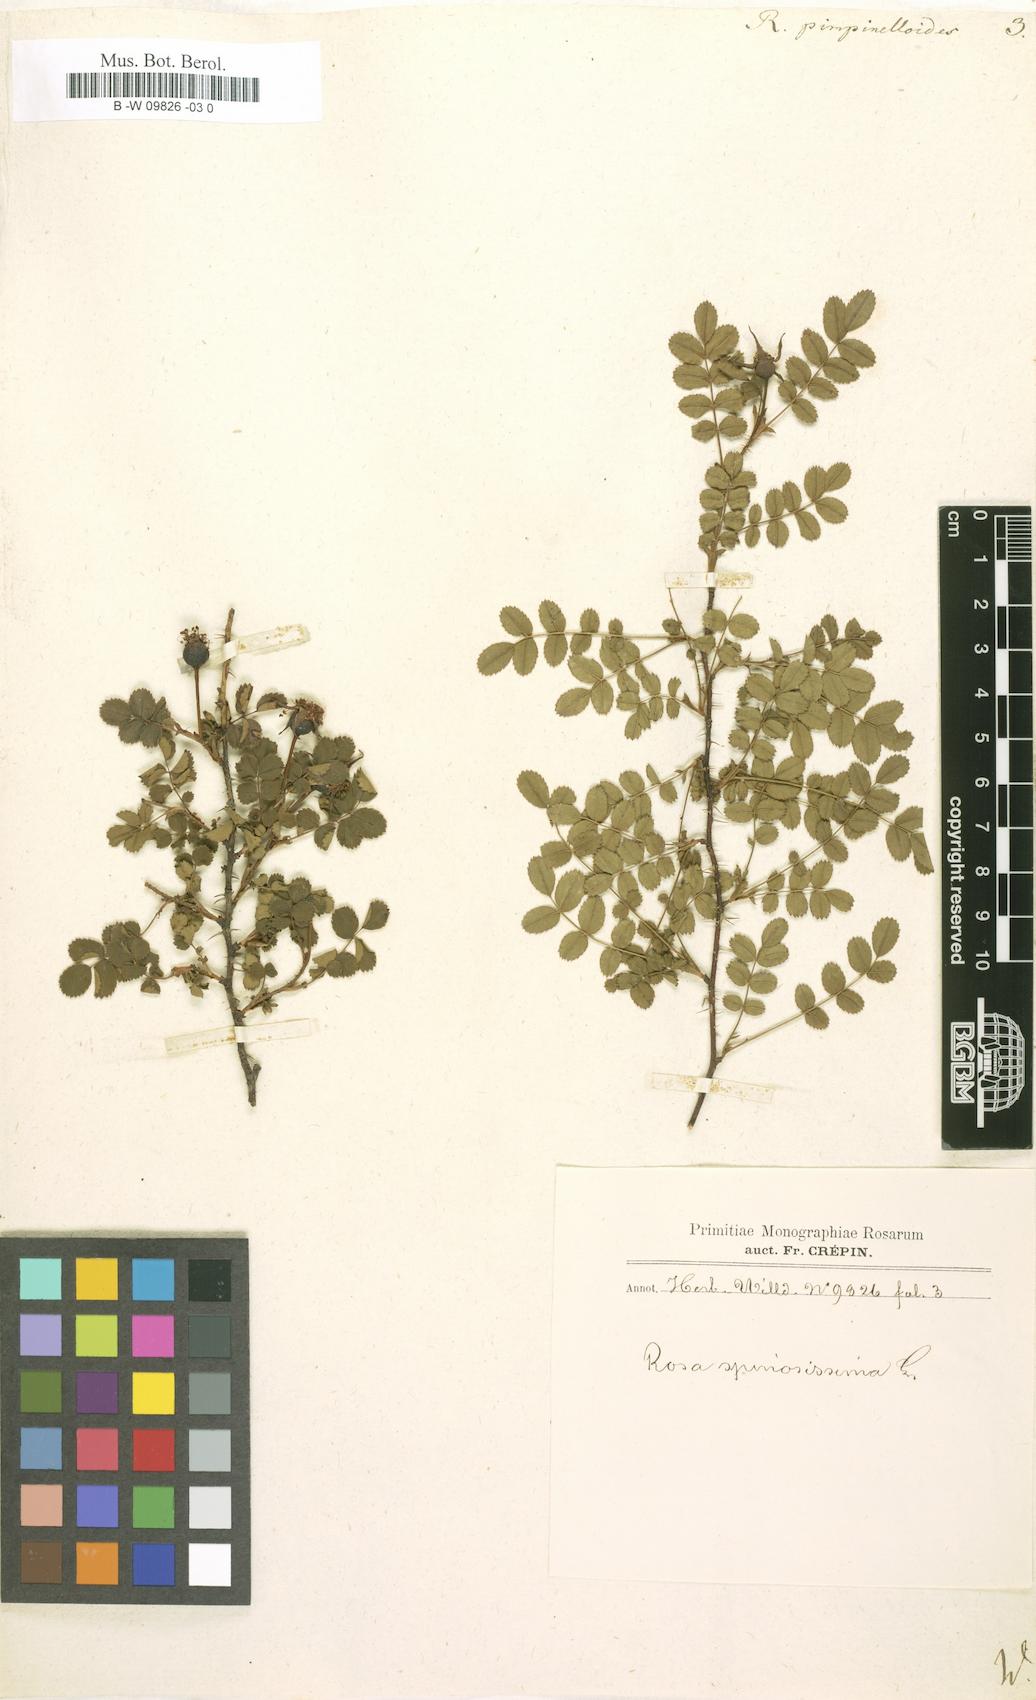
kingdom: Plantae
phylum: Tracheophyta
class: Magnoliopsida
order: Rosales
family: Rosaceae
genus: Rosa
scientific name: Rosa spinosissima
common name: Burnet rose
